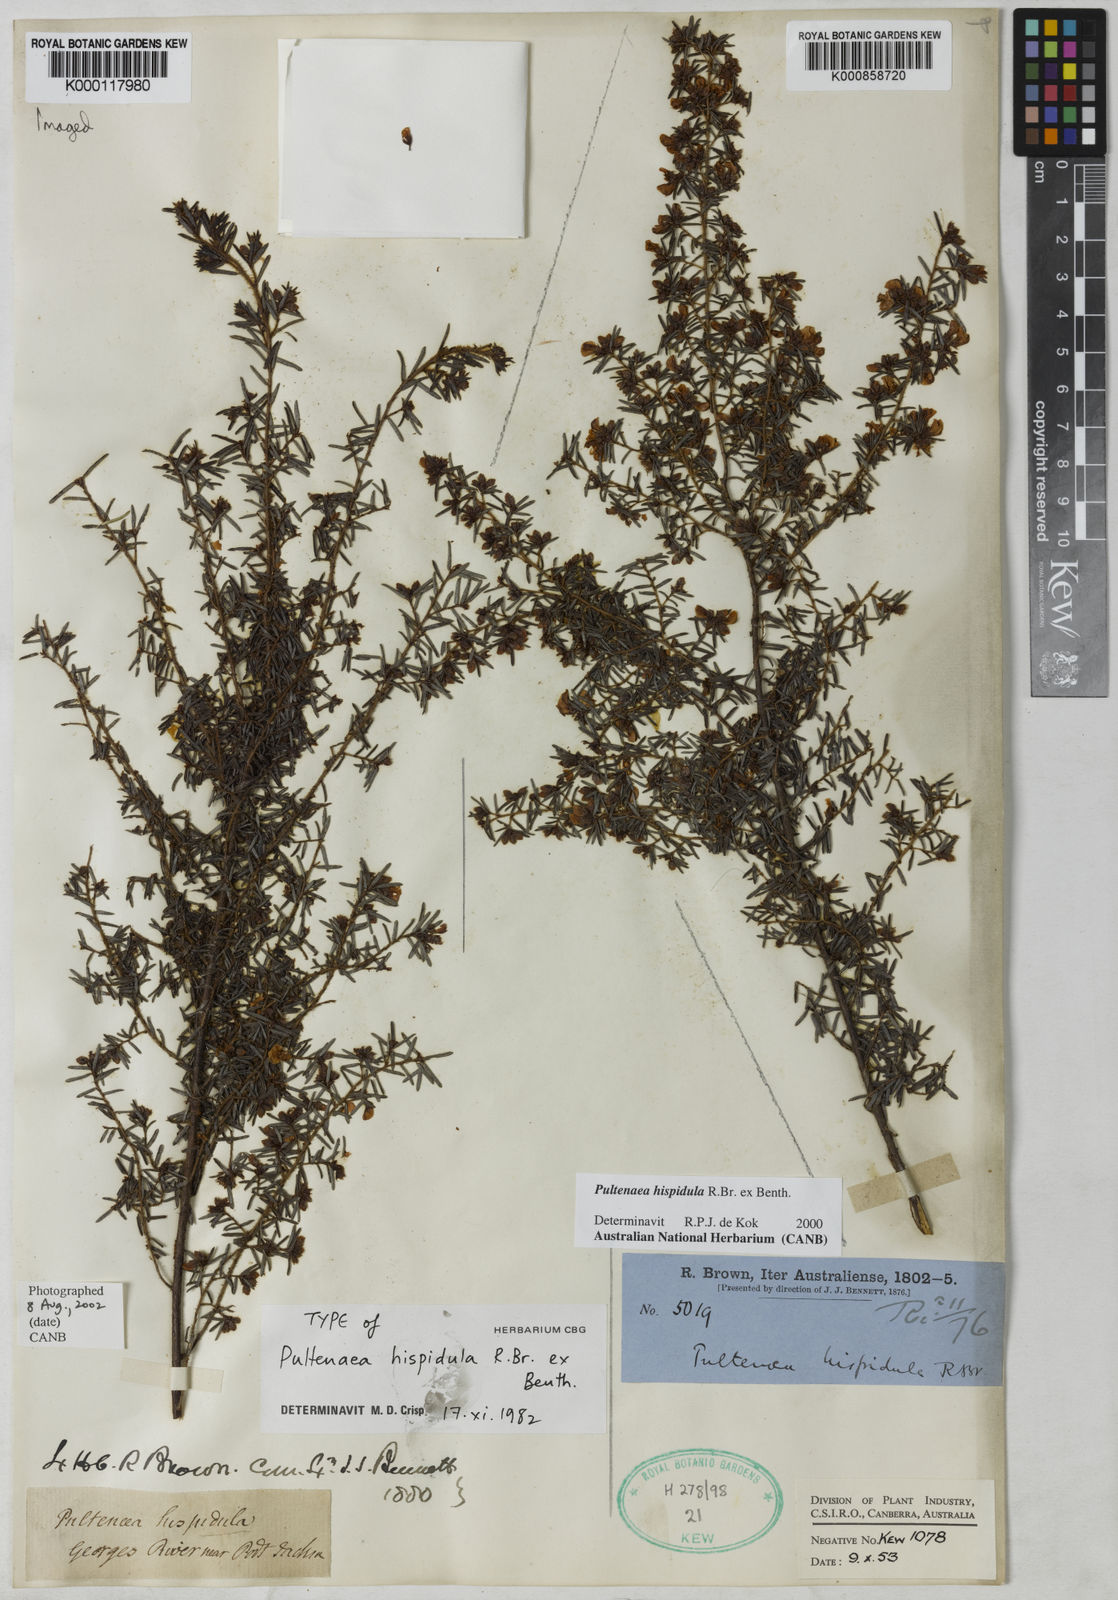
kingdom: Plantae
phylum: Tracheophyta
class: Magnoliopsida
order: Fabales
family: Fabaceae
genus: Pultenaea
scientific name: Pultenaea hispidula
